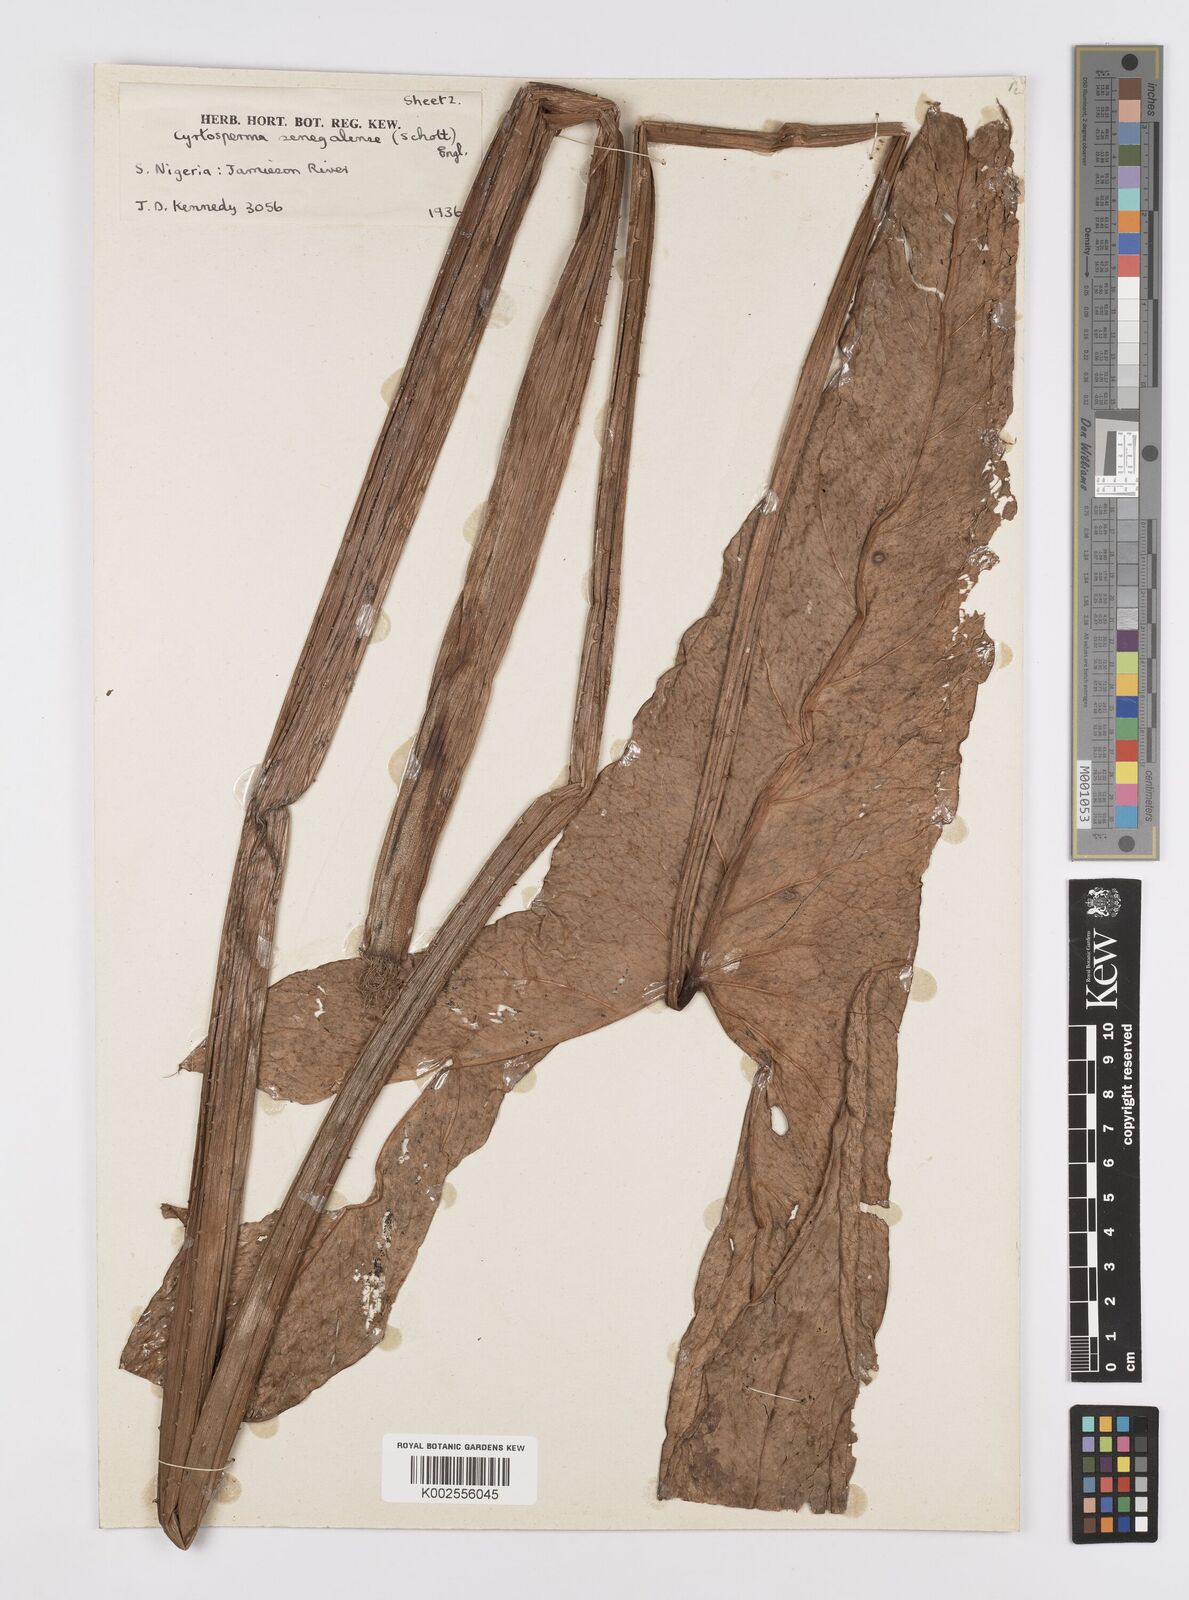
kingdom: Plantae
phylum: Tracheophyta
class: Liliopsida
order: Alismatales
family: Araceae
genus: Lasimorpha
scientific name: Lasimorpha senegalensis
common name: Swamp arum
